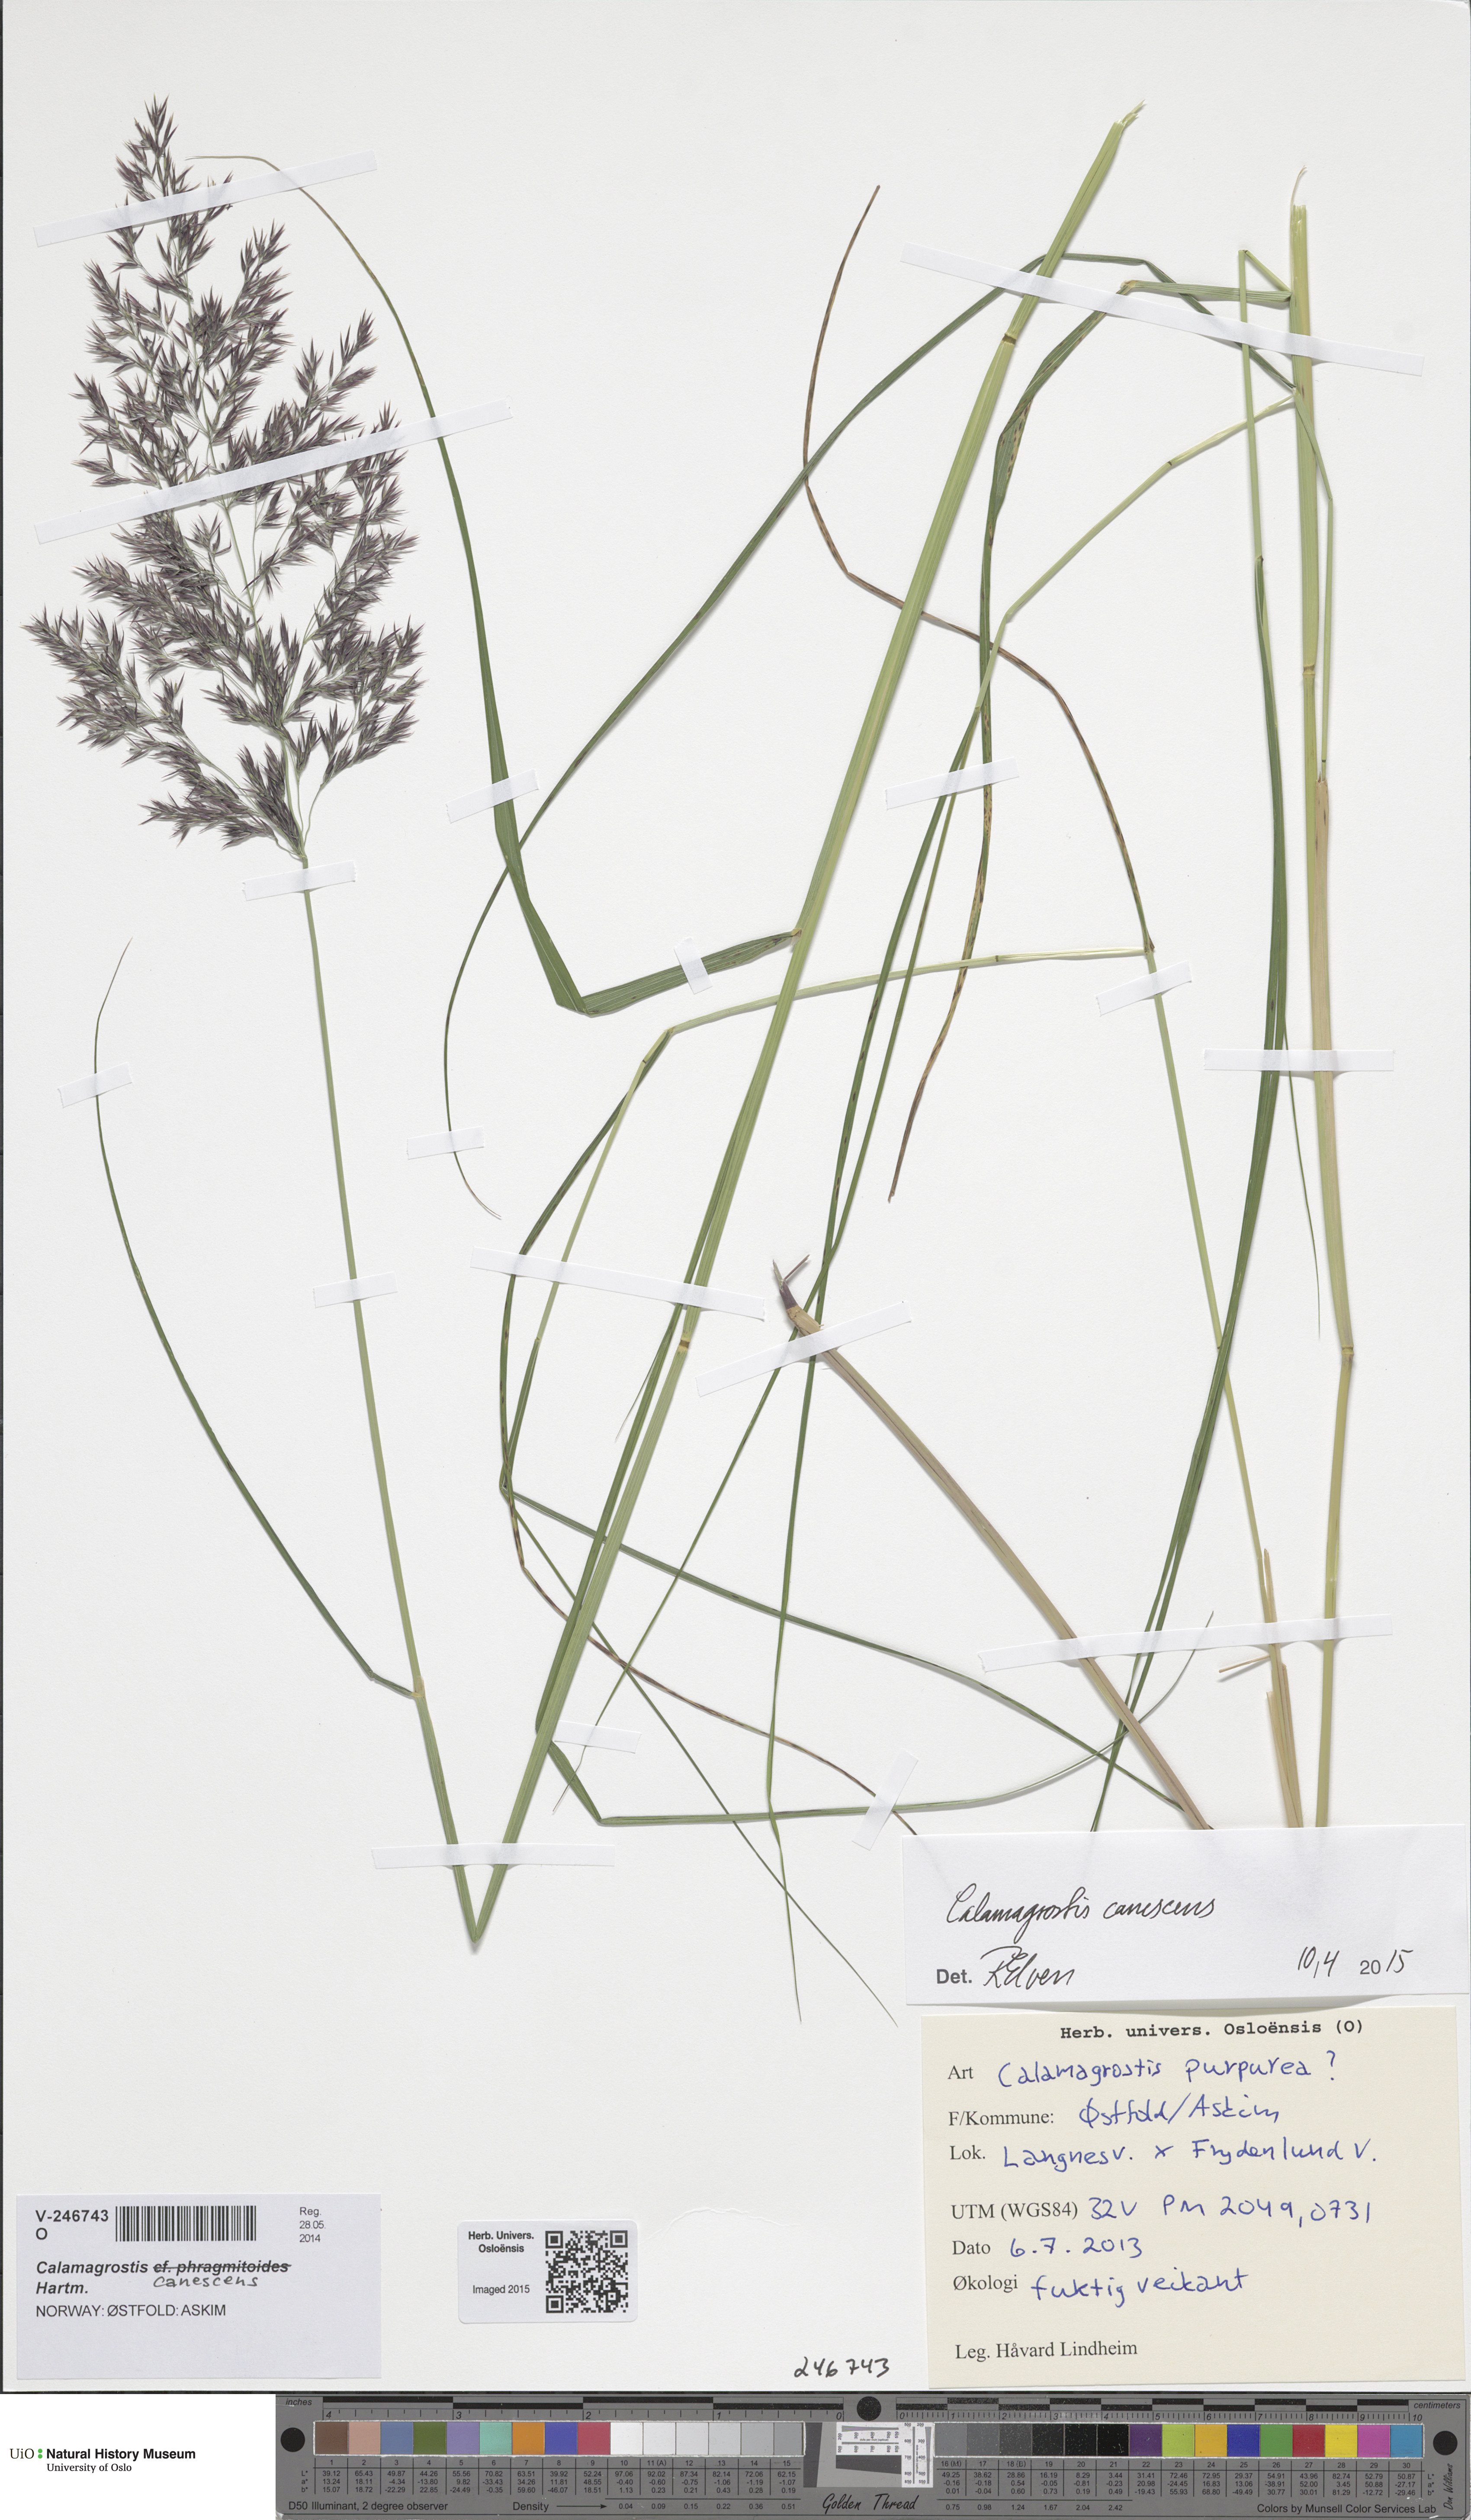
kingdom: Plantae
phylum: Tracheophyta
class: Liliopsida
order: Poales
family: Poaceae
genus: Calamagrostis
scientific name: Calamagrostis canescens
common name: Purple small-reed
